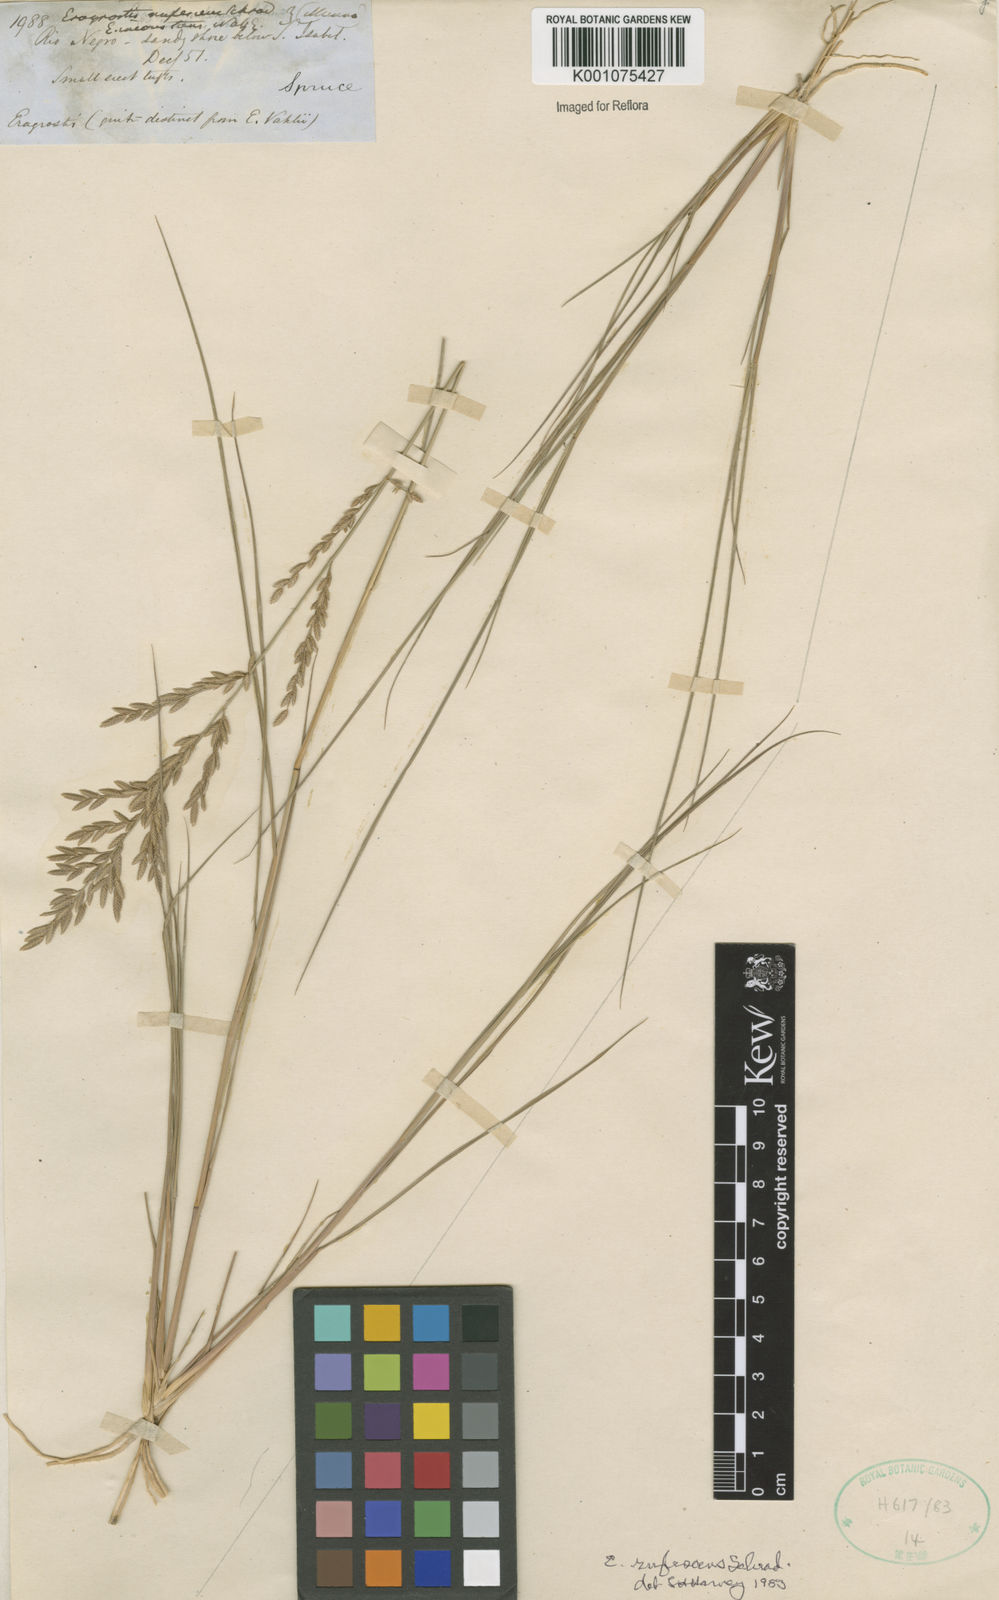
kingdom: Plantae
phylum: Tracheophyta
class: Liliopsida
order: Poales
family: Poaceae
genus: Eragrostis
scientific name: Eragrostis rufescens
